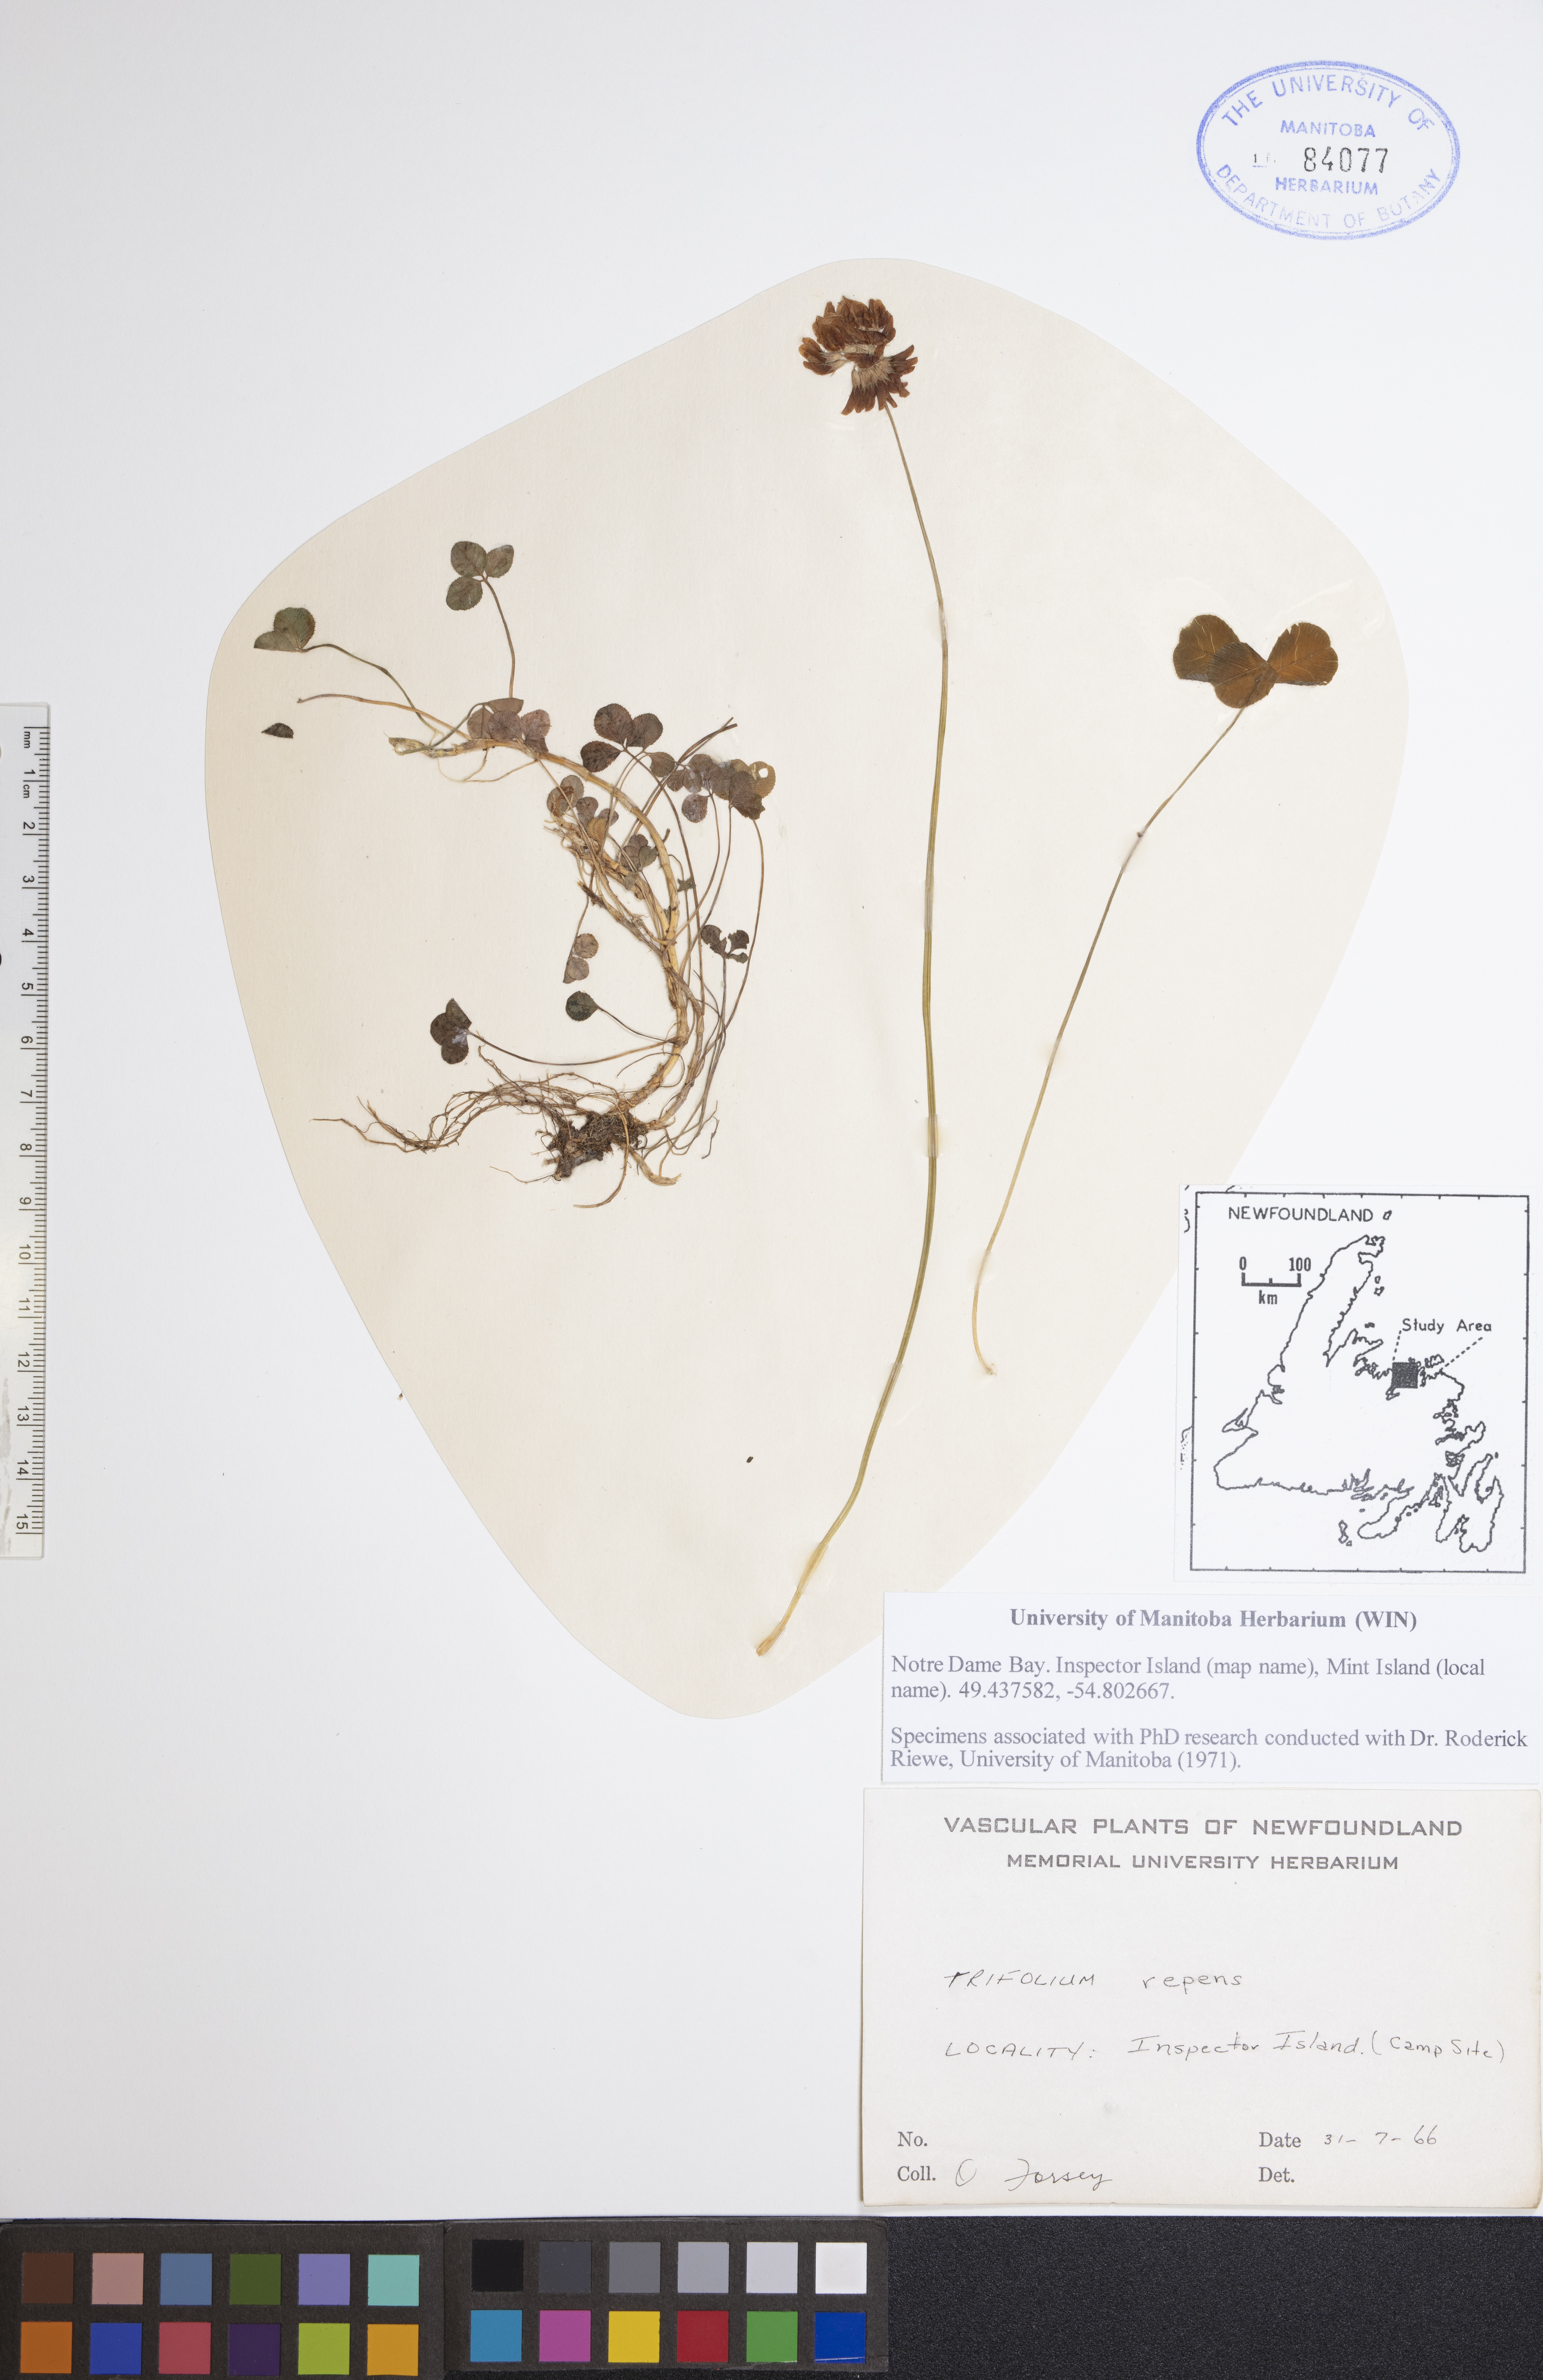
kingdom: Plantae
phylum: Tracheophyta
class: Magnoliopsida
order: Fabales
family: Fabaceae
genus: Trifolium
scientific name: Trifolium repens
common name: White clover
